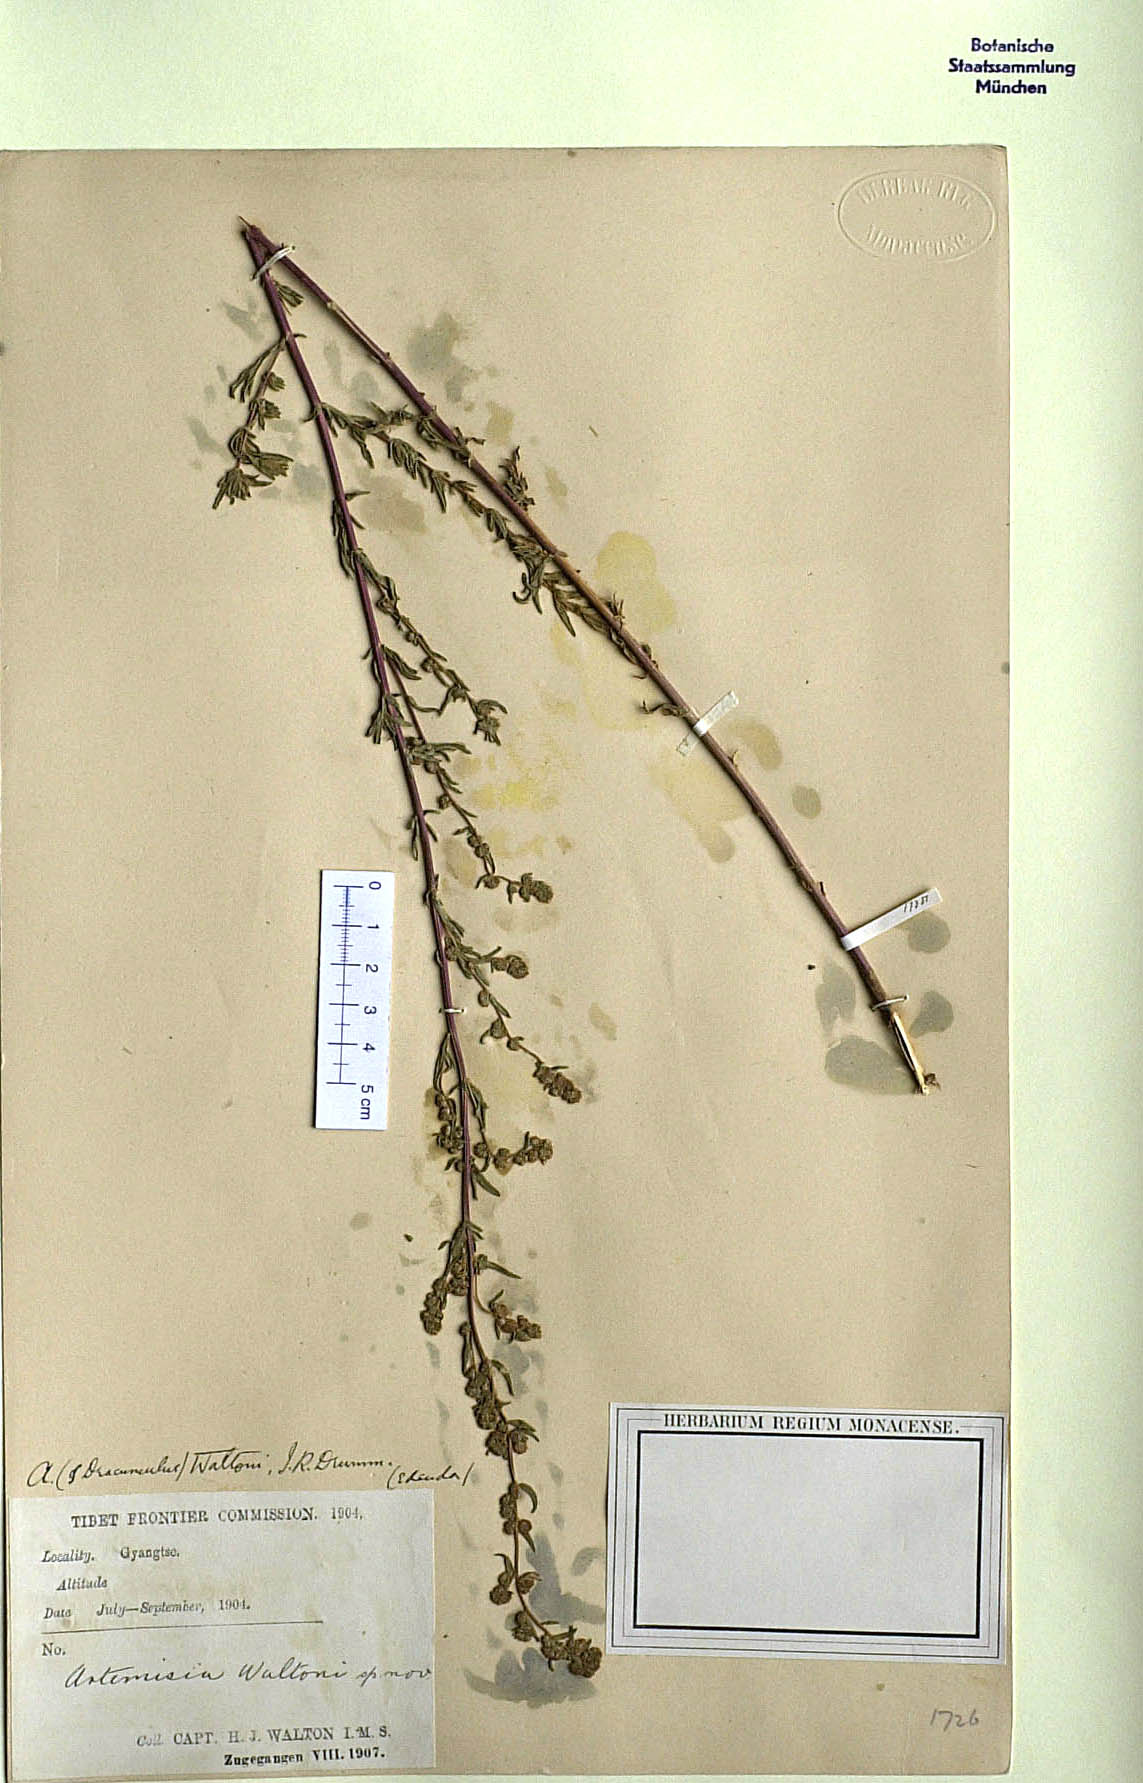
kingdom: Plantae
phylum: Tracheophyta
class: Magnoliopsida
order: Asterales
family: Asteraceae
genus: Artemisia
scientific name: Artemisia waltonii
